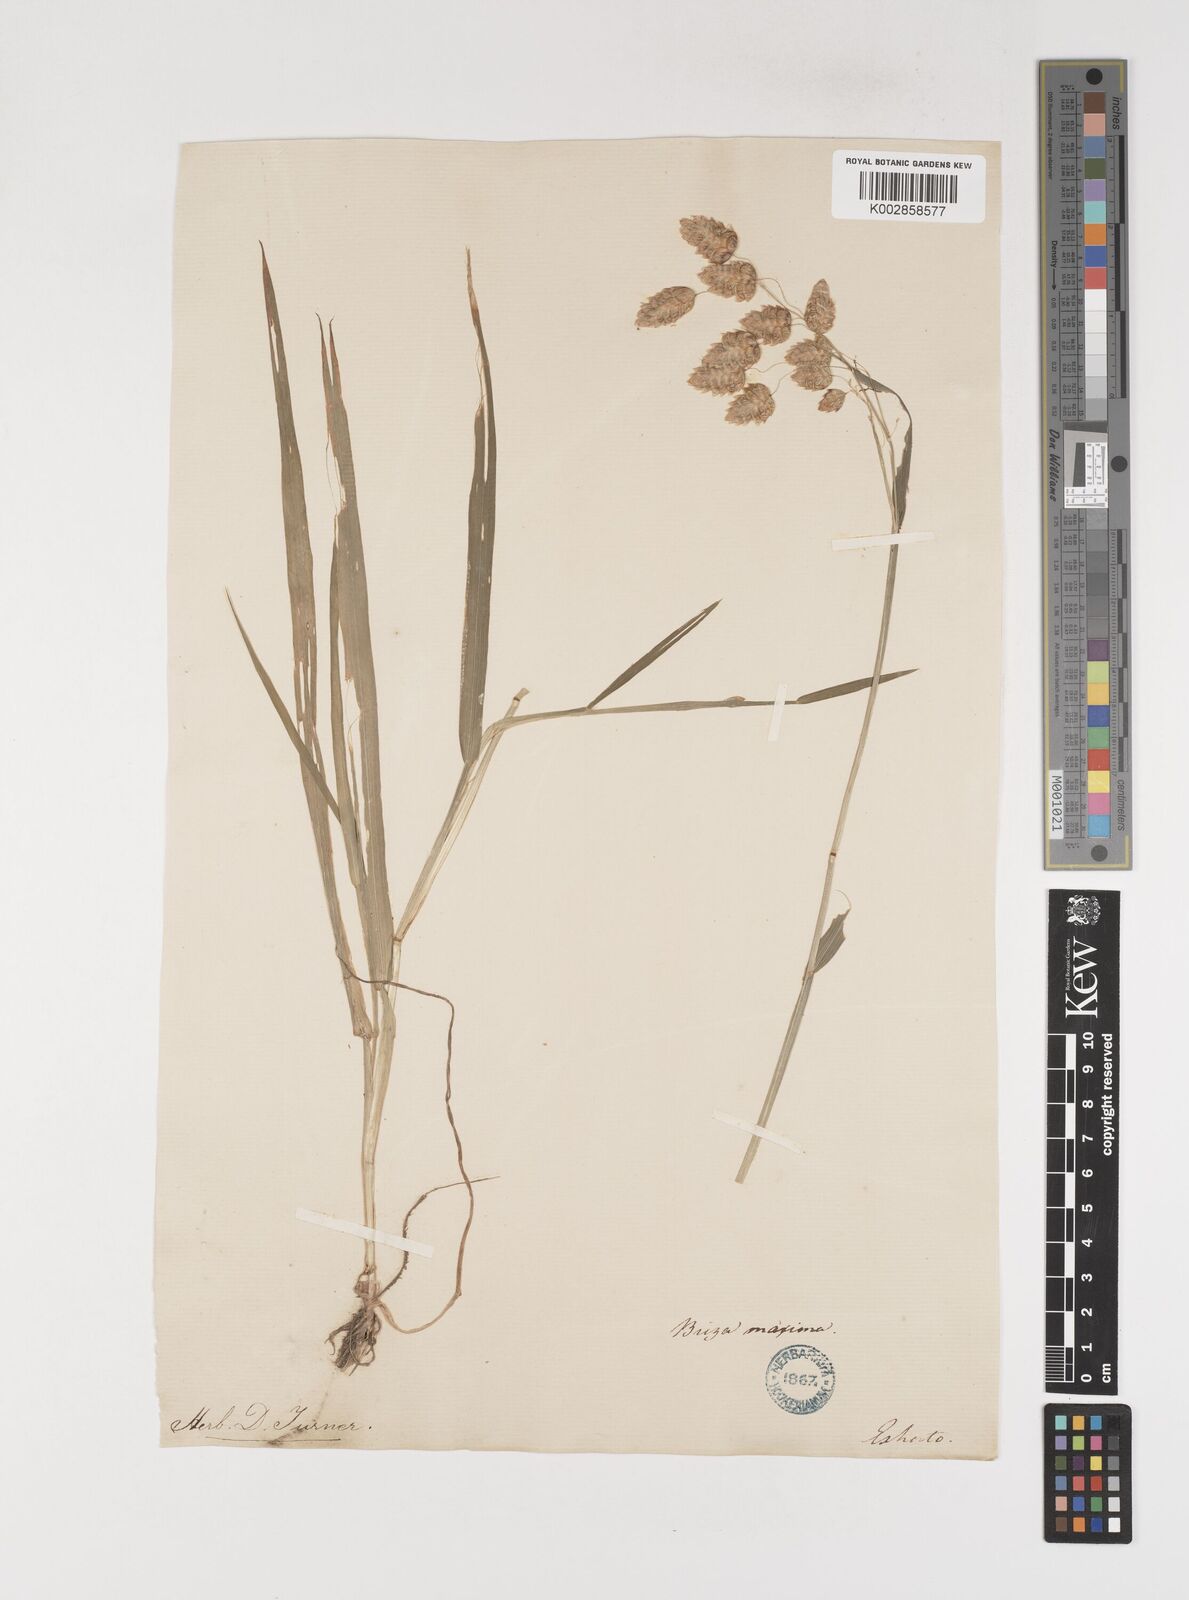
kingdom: Plantae
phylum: Tracheophyta
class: Liliopsida
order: Poales
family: Poaceae
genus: Briza
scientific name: Briza maxima
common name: Big quakinggrass
